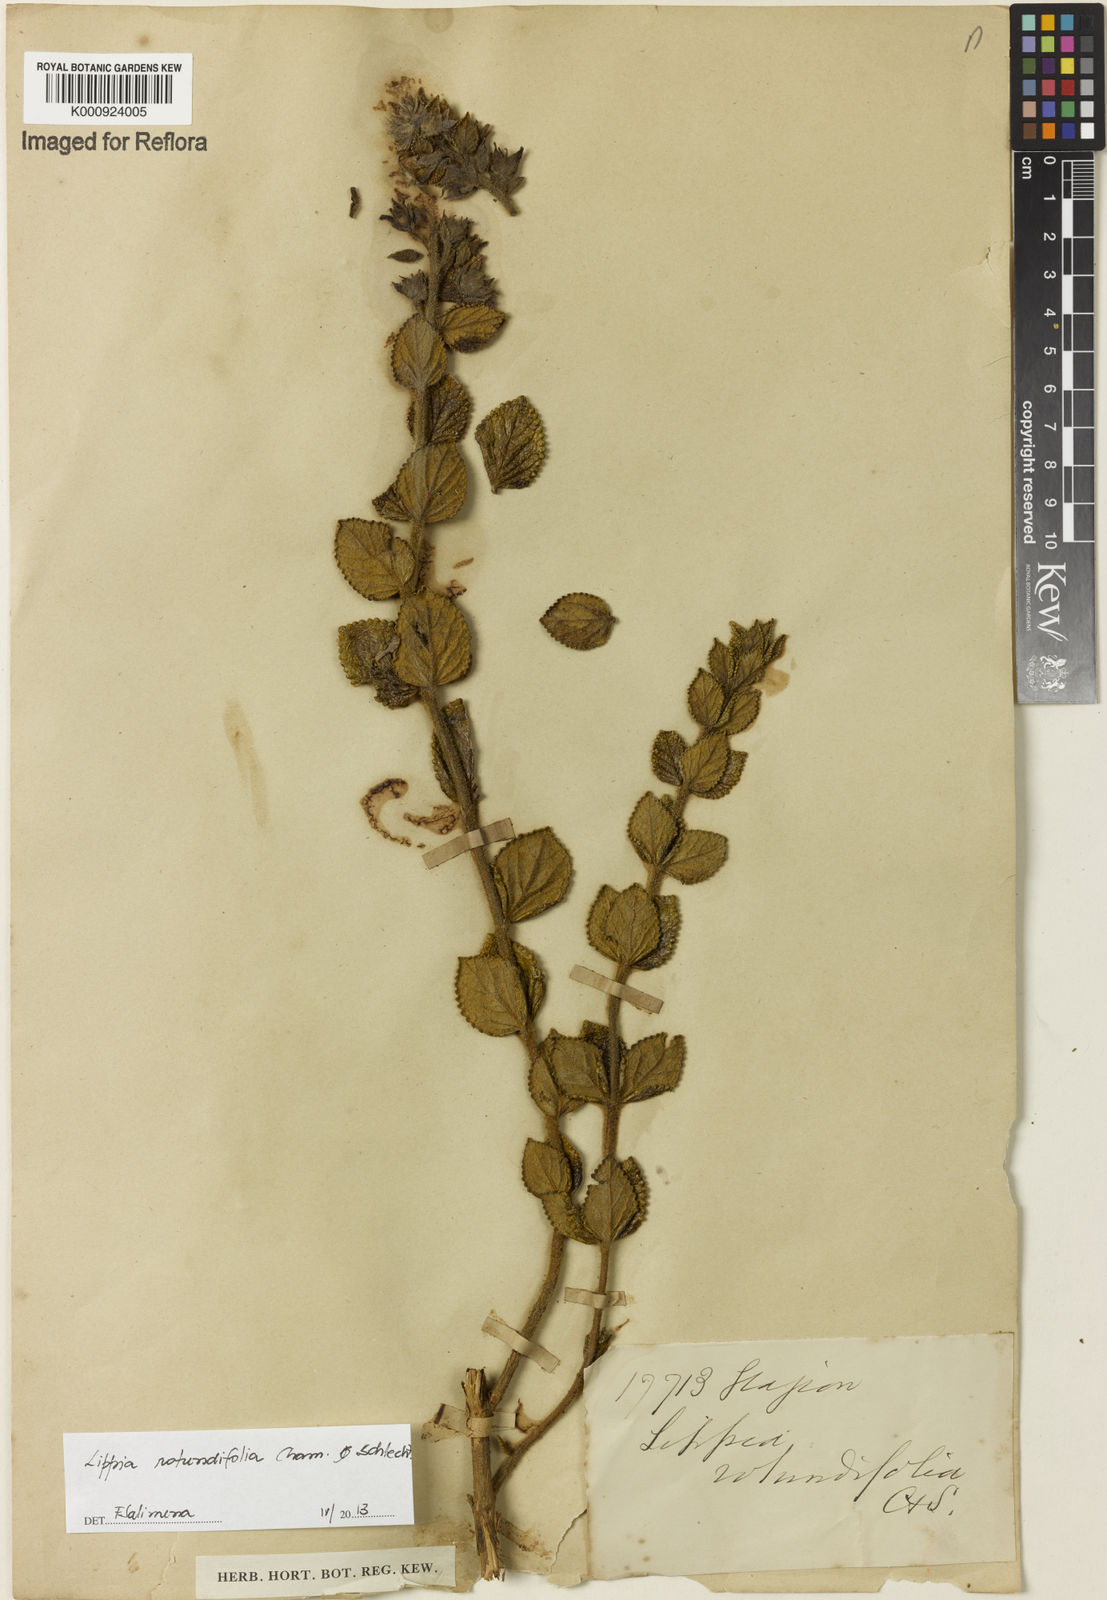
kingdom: Plantae
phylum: Tracheophyta
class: Magnoliopsida
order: Lamiales
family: Verbenaceae
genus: Lippia
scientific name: Lippia rotundifolia
